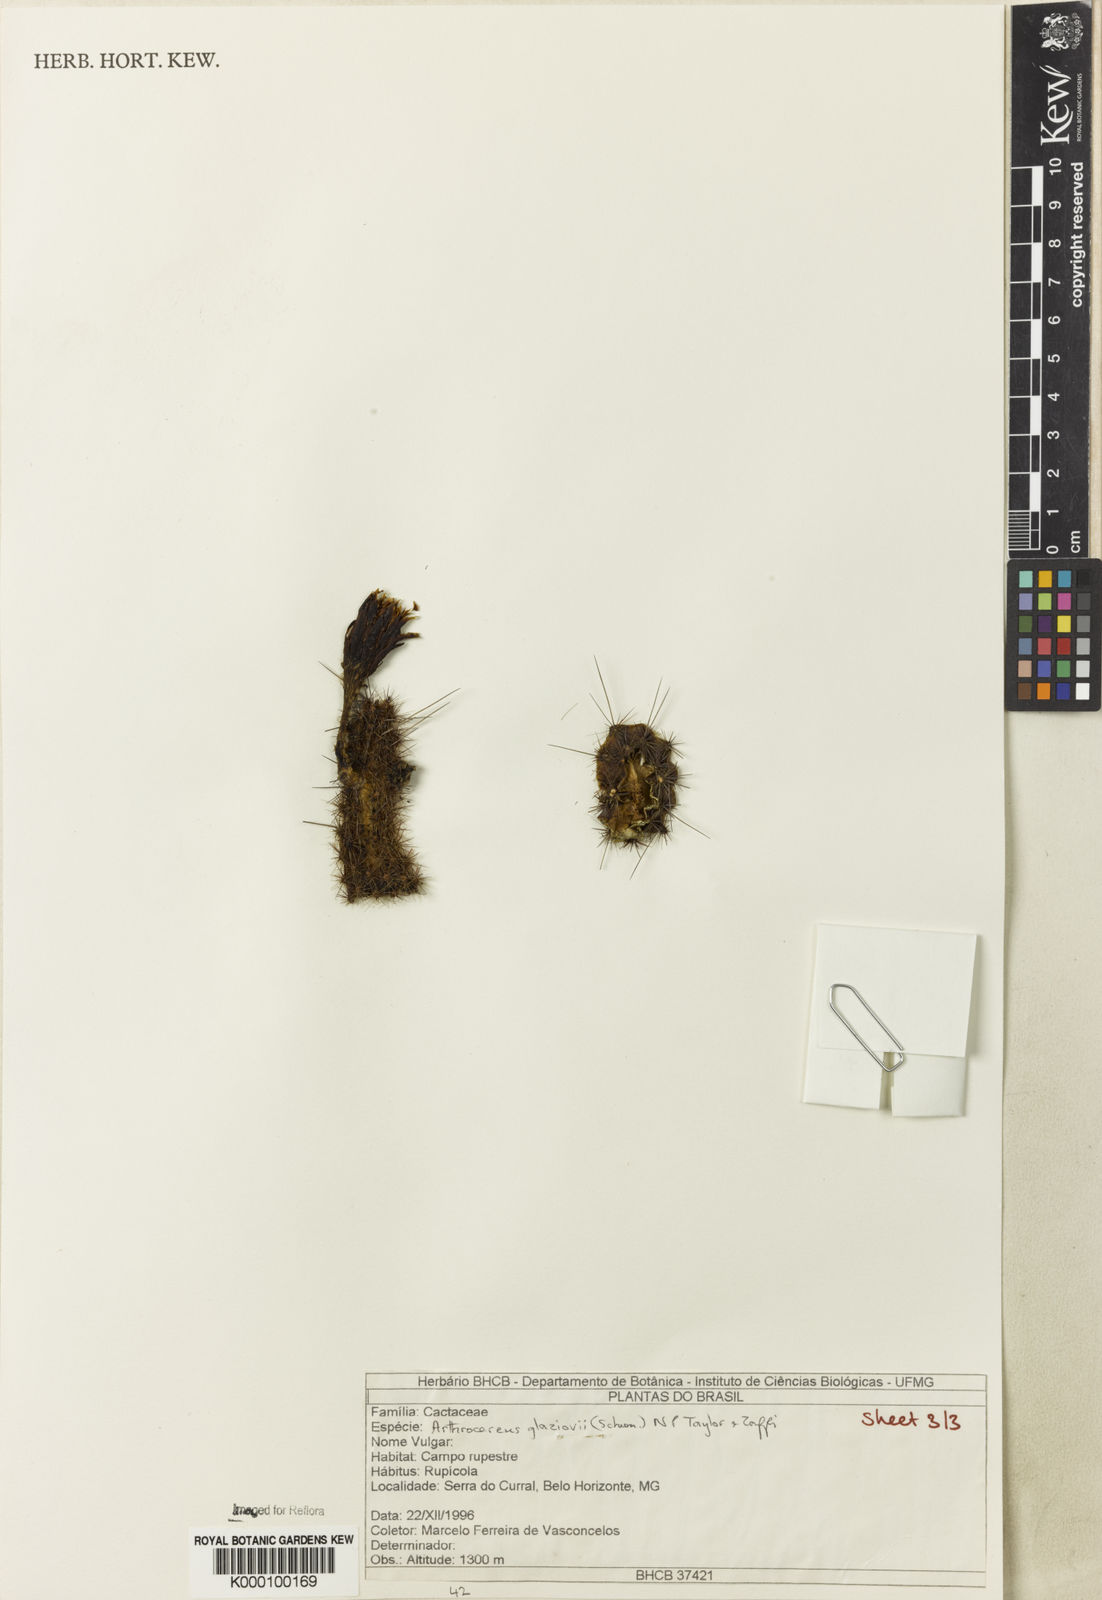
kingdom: Plantae
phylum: Tracheophyta
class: Magnoliopsida
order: Caryophyllales
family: Cactaceae
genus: Arthrocereus
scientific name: Arthrocereus glaziovii
